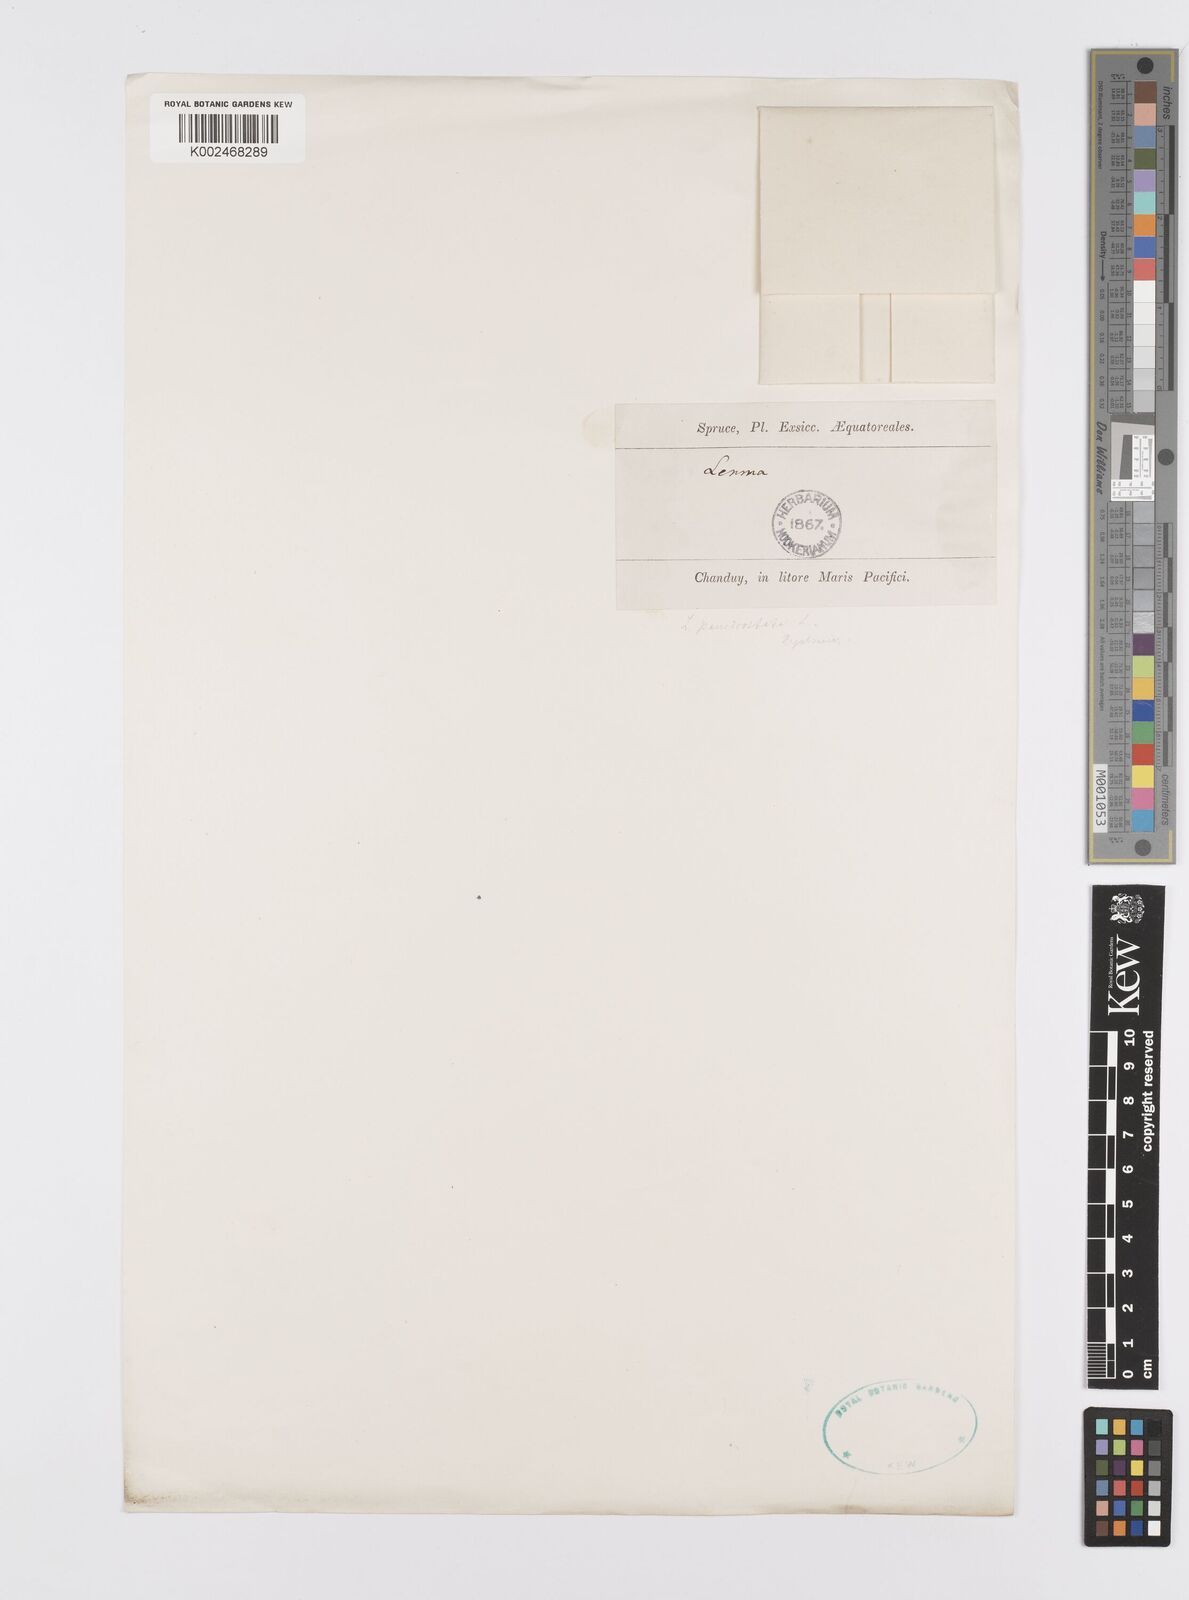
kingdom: Plantae
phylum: Tracheophyta
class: Liliopsida
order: Alismatales
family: Araceae
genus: Lemna
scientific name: Lemna aequinoctialis
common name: Duckweed
